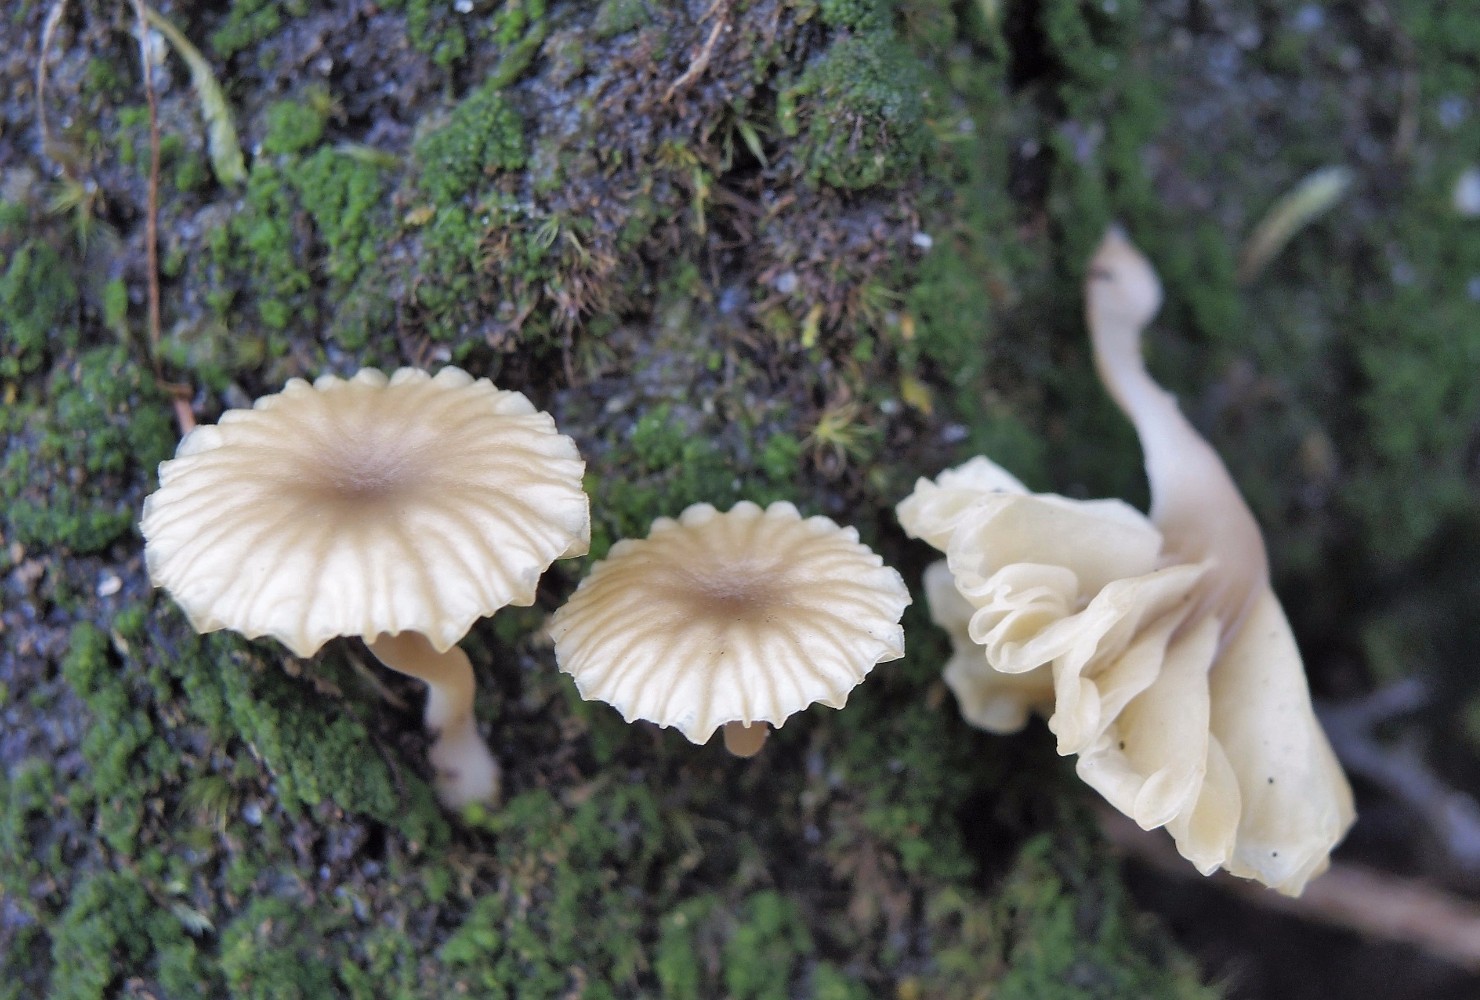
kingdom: Fungi
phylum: Basidiomycota
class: Agaricomycetes
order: Agaricales
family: Hygrophoraceae
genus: Lichenomphalia
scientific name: Lichenomphalia umbellifera
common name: tørve-lavhat
